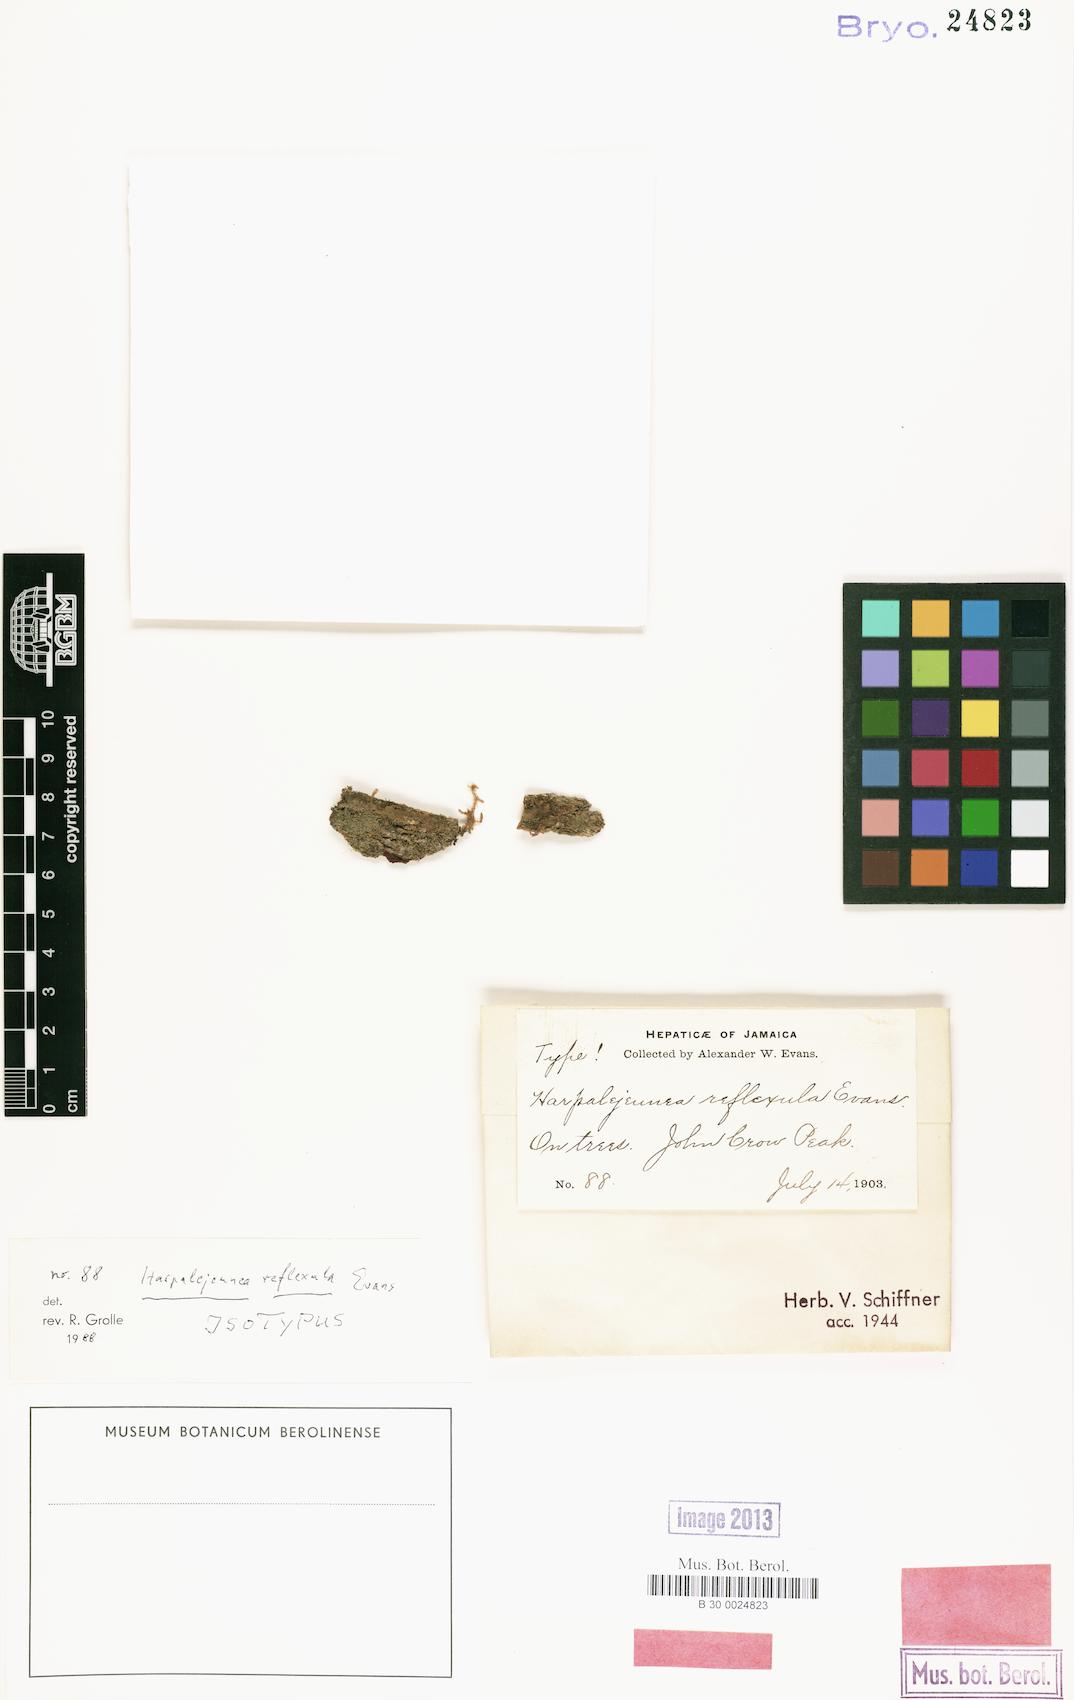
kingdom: Plantae
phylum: Marchantiophyta
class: Jungermanniopsida
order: Porellales
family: Lejeuneaceae
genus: Harpalejeunea
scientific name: Harpalejeunea reflexula
